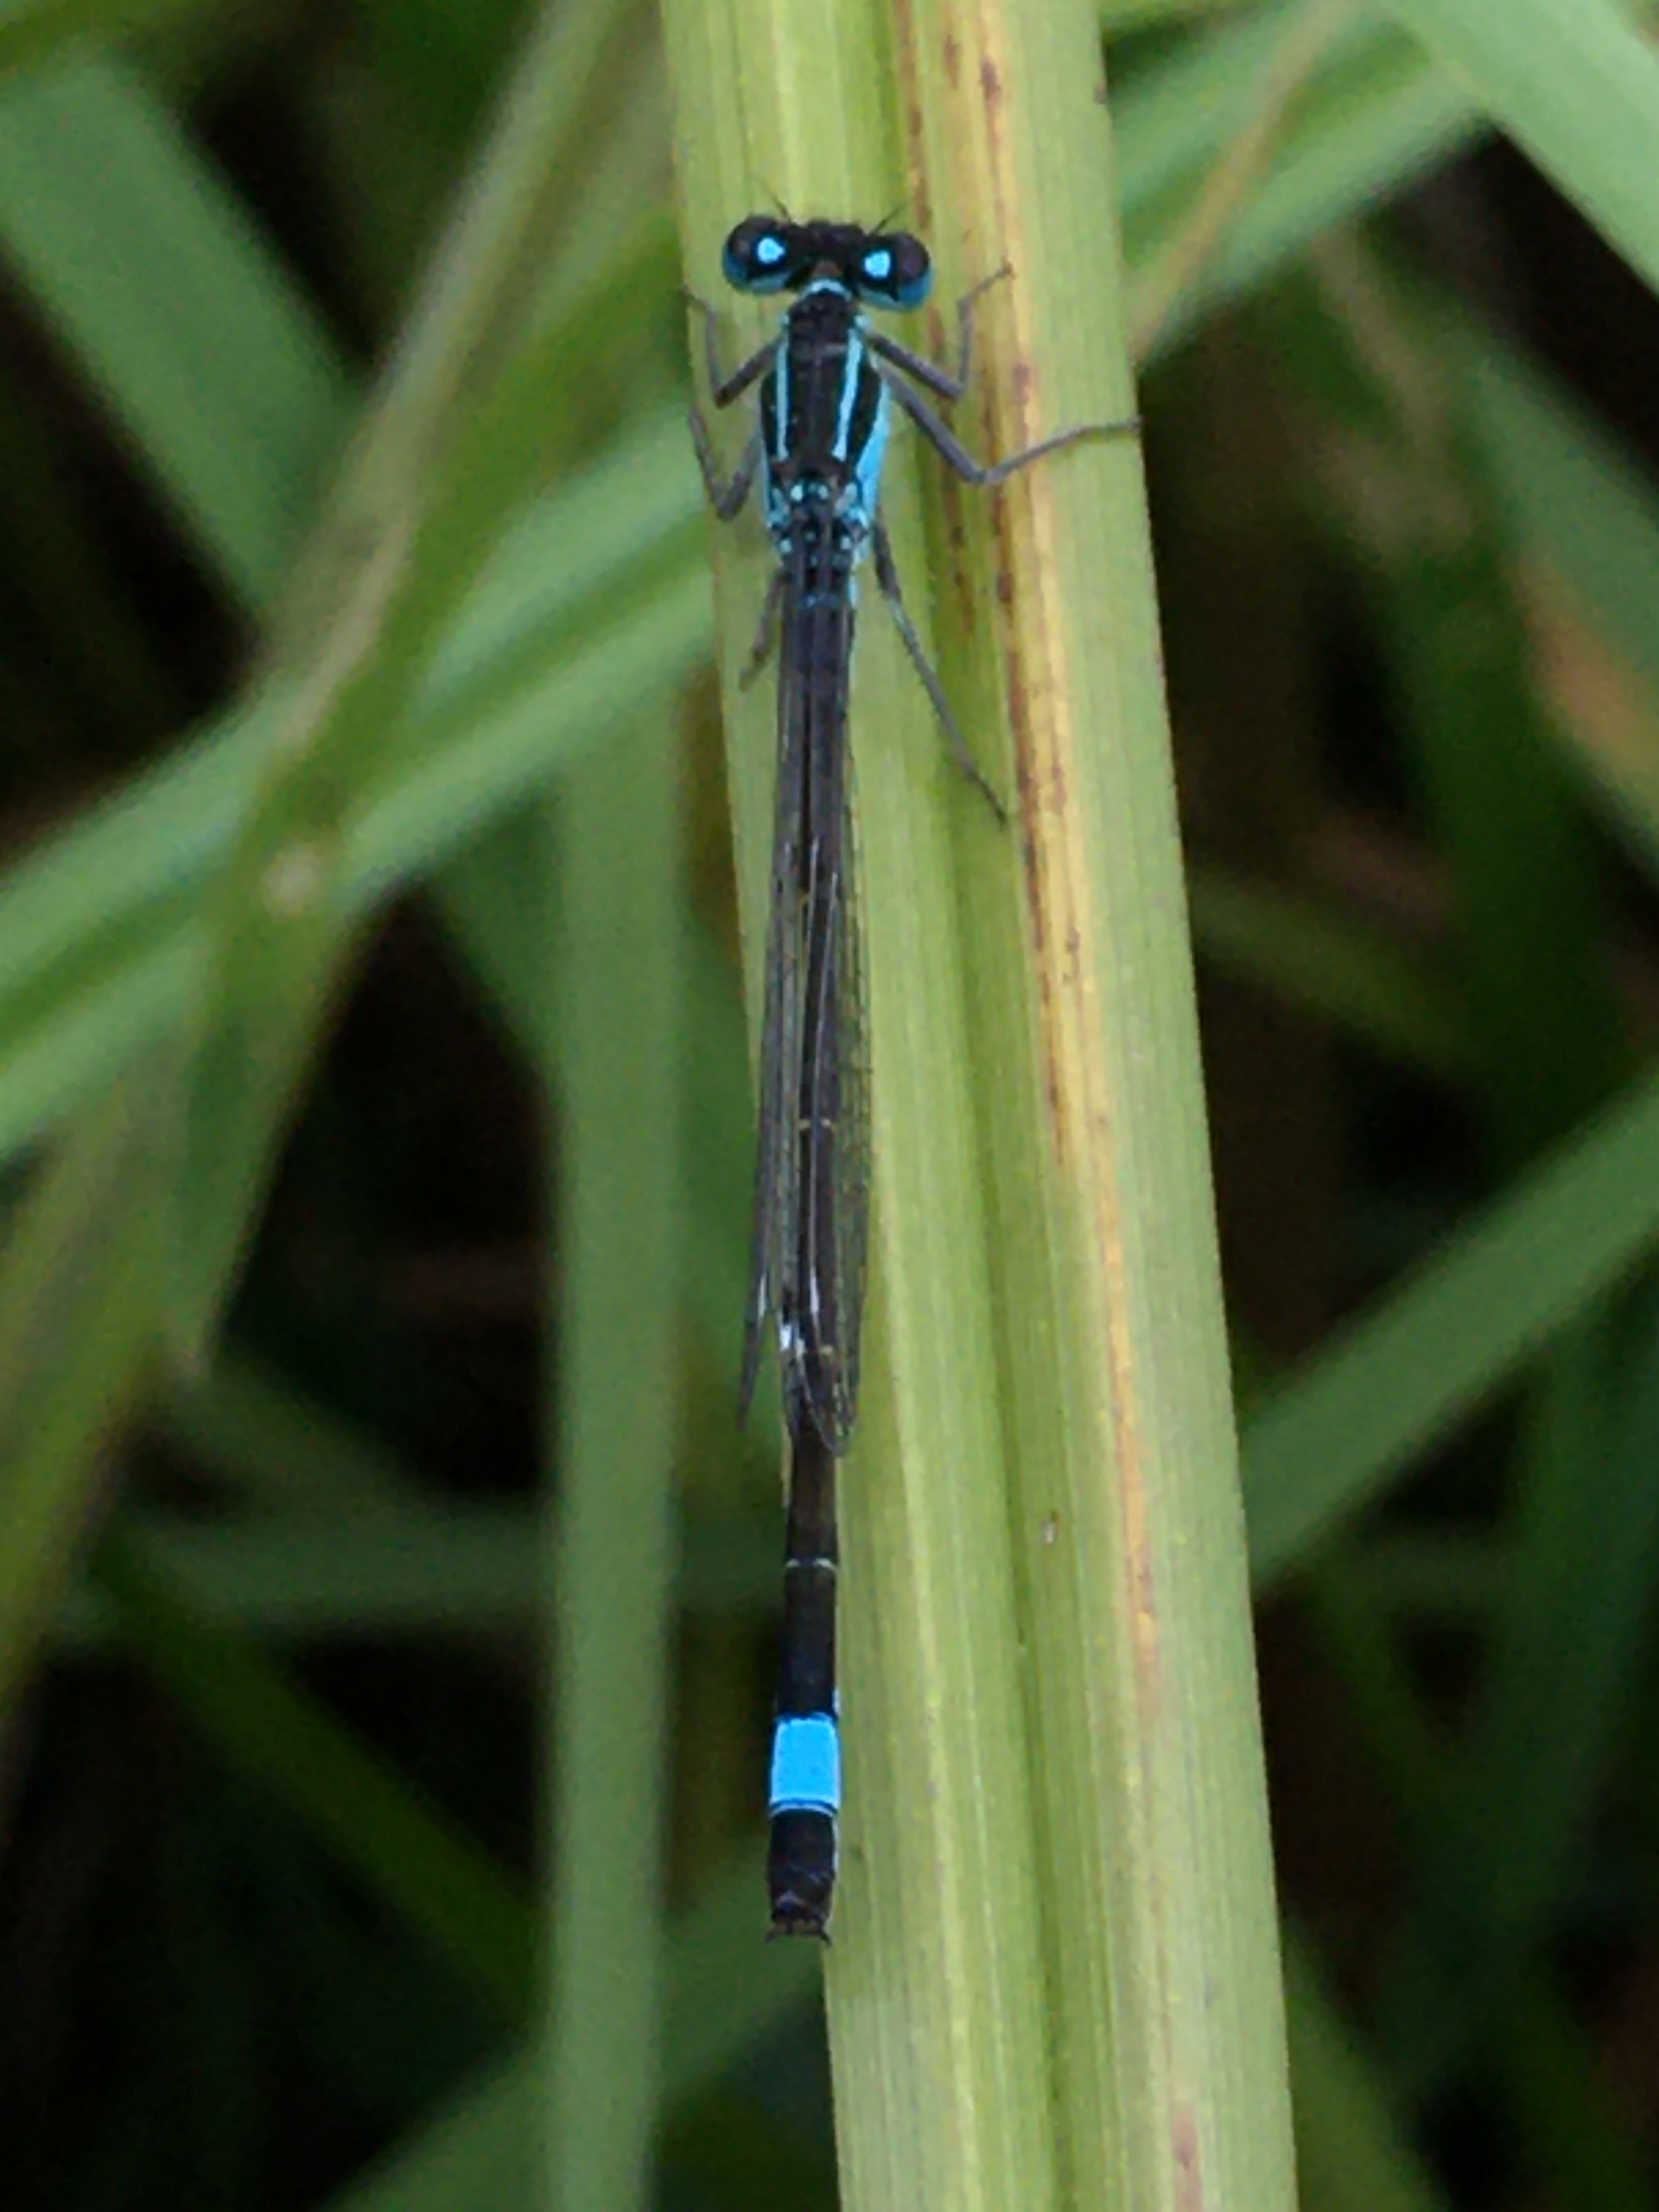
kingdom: Animalia
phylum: Arthropoda
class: Insecta
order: Odonata
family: Coenagrionidae
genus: Ischnura
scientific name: Ischnura elegans
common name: Stor farvevandnymfe
